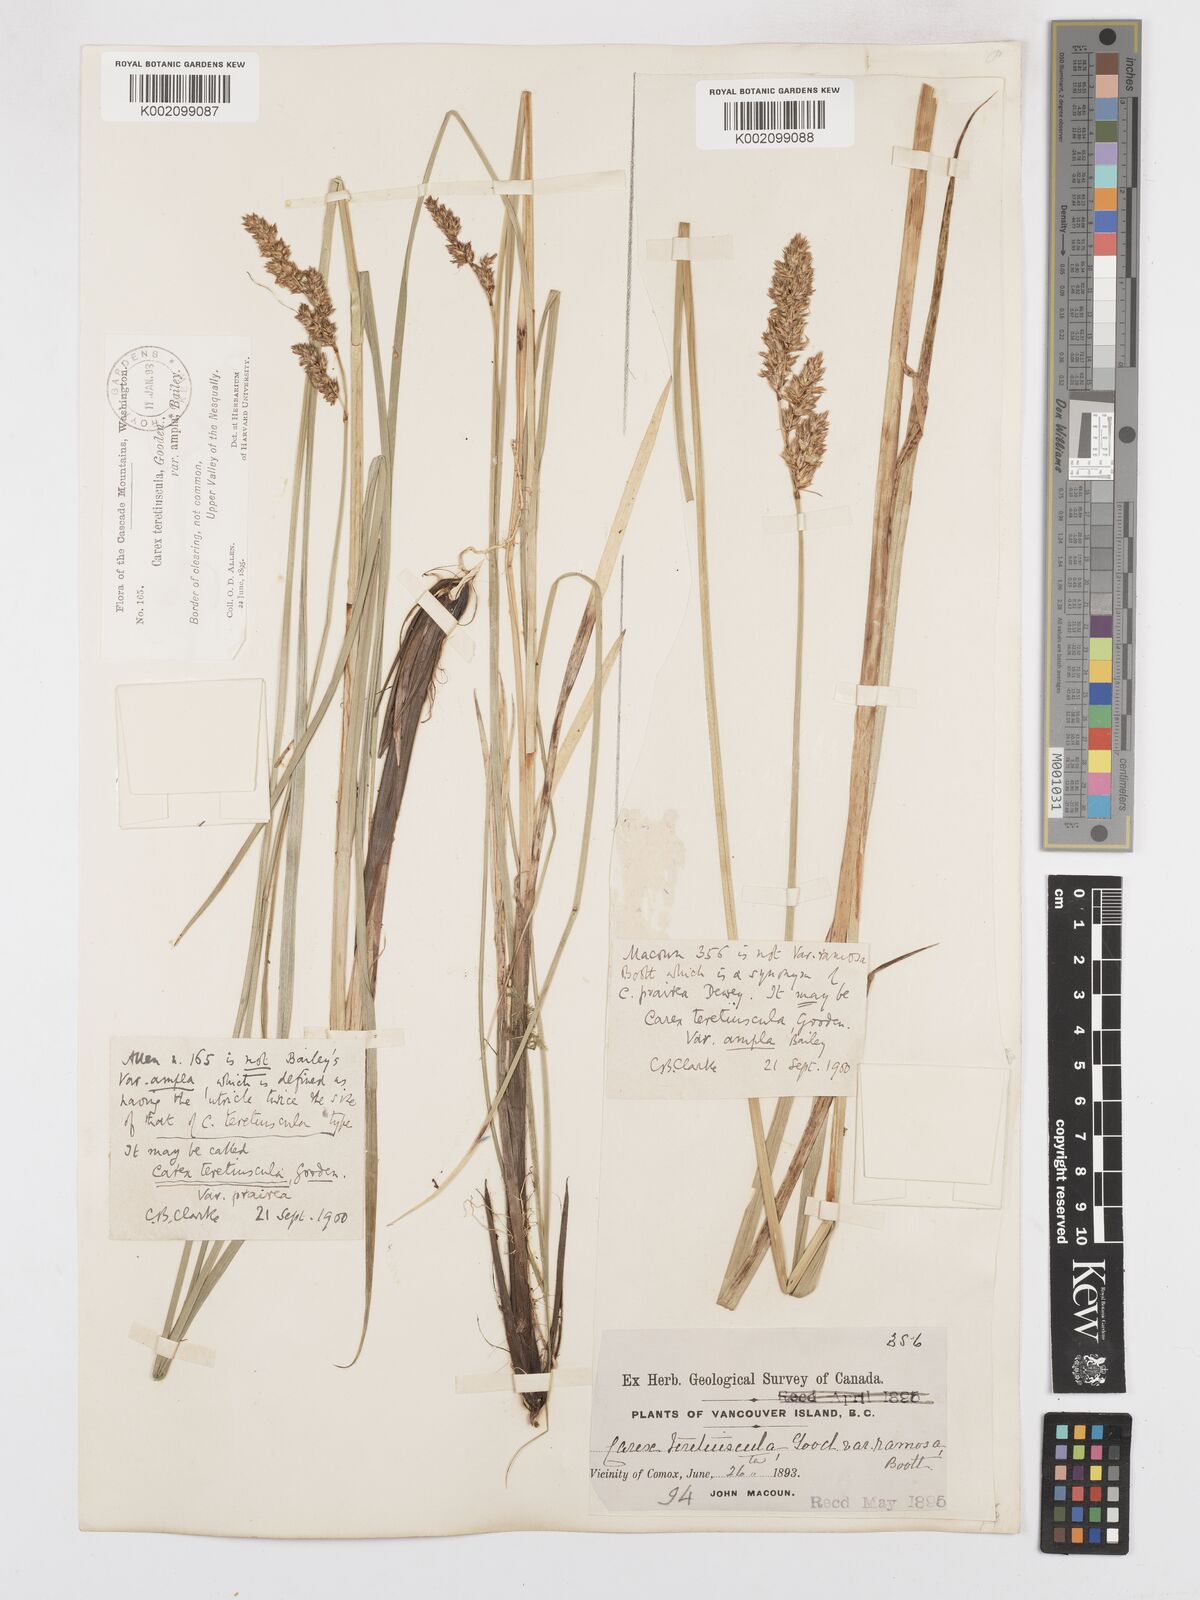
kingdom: Plantae
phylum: Tracheophyta
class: Liliopsida
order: Poales
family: Cyperaceae
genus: Carex
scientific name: Carex cusickii
